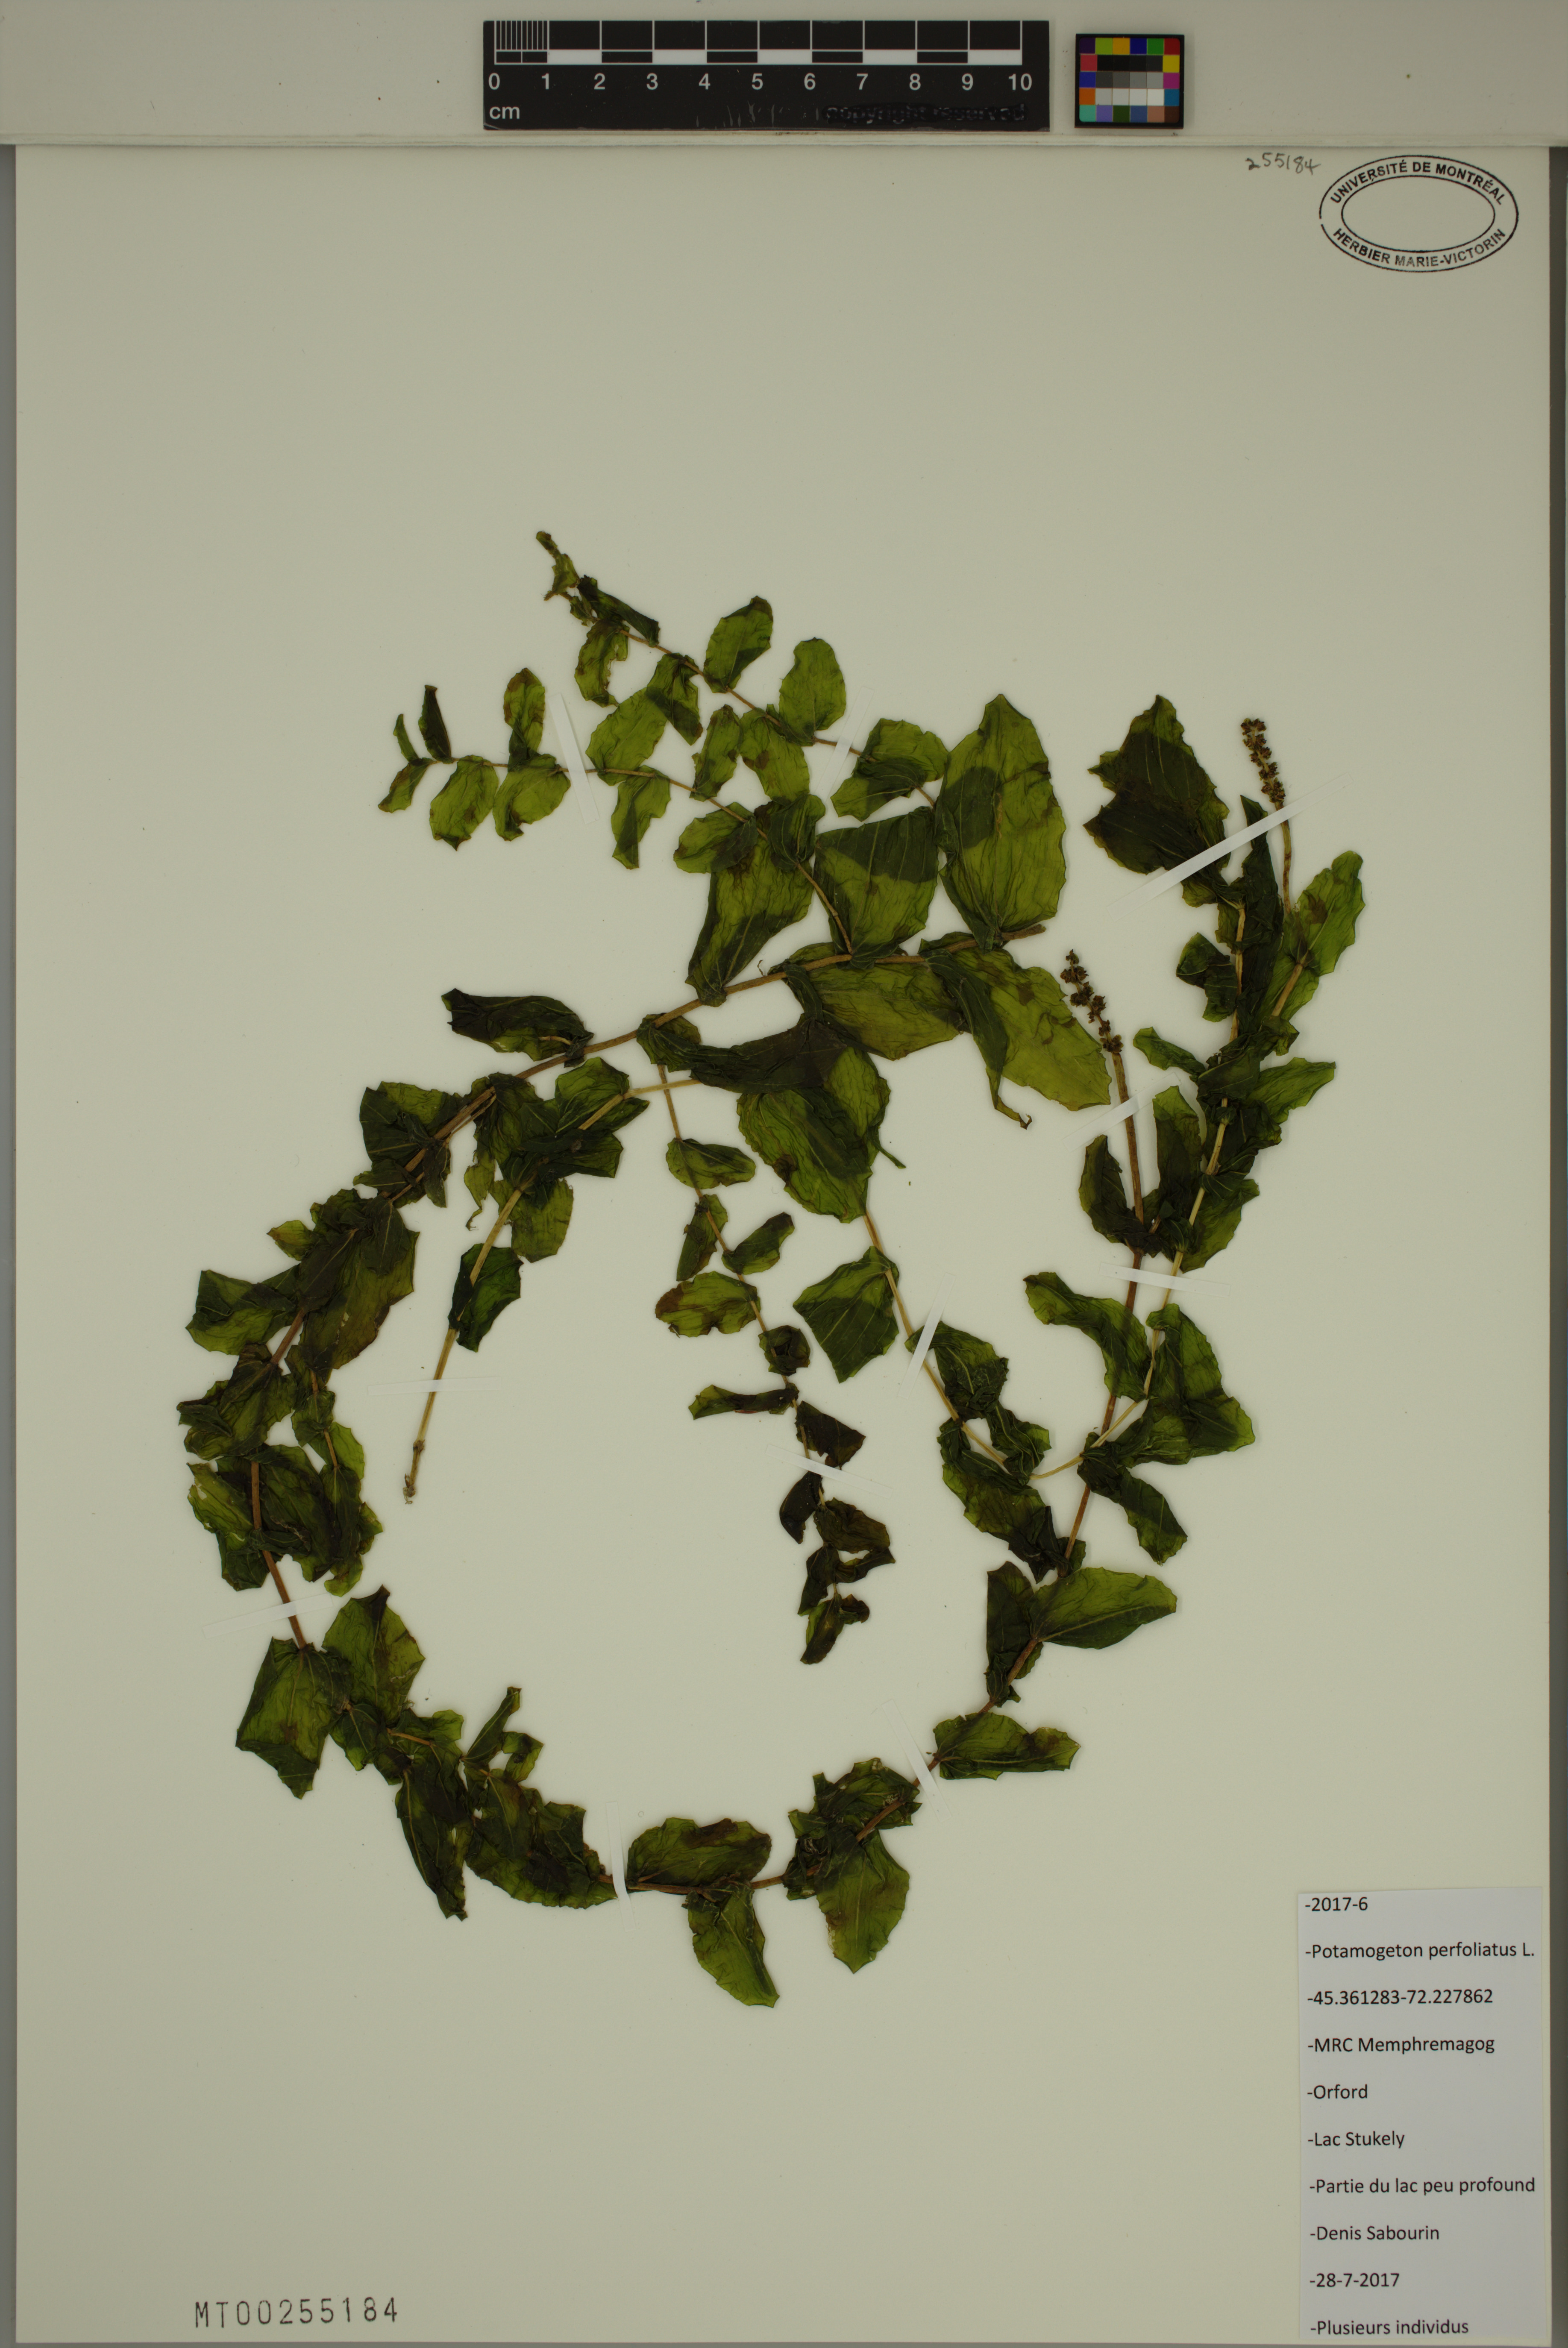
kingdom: Plantae
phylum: Tracheophyta
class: Liliopsida
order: Alismatales
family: Potamogetonaceae
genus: Potamogeton
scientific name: Potamogeton perfoliatus
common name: Perfoliate pondweed
